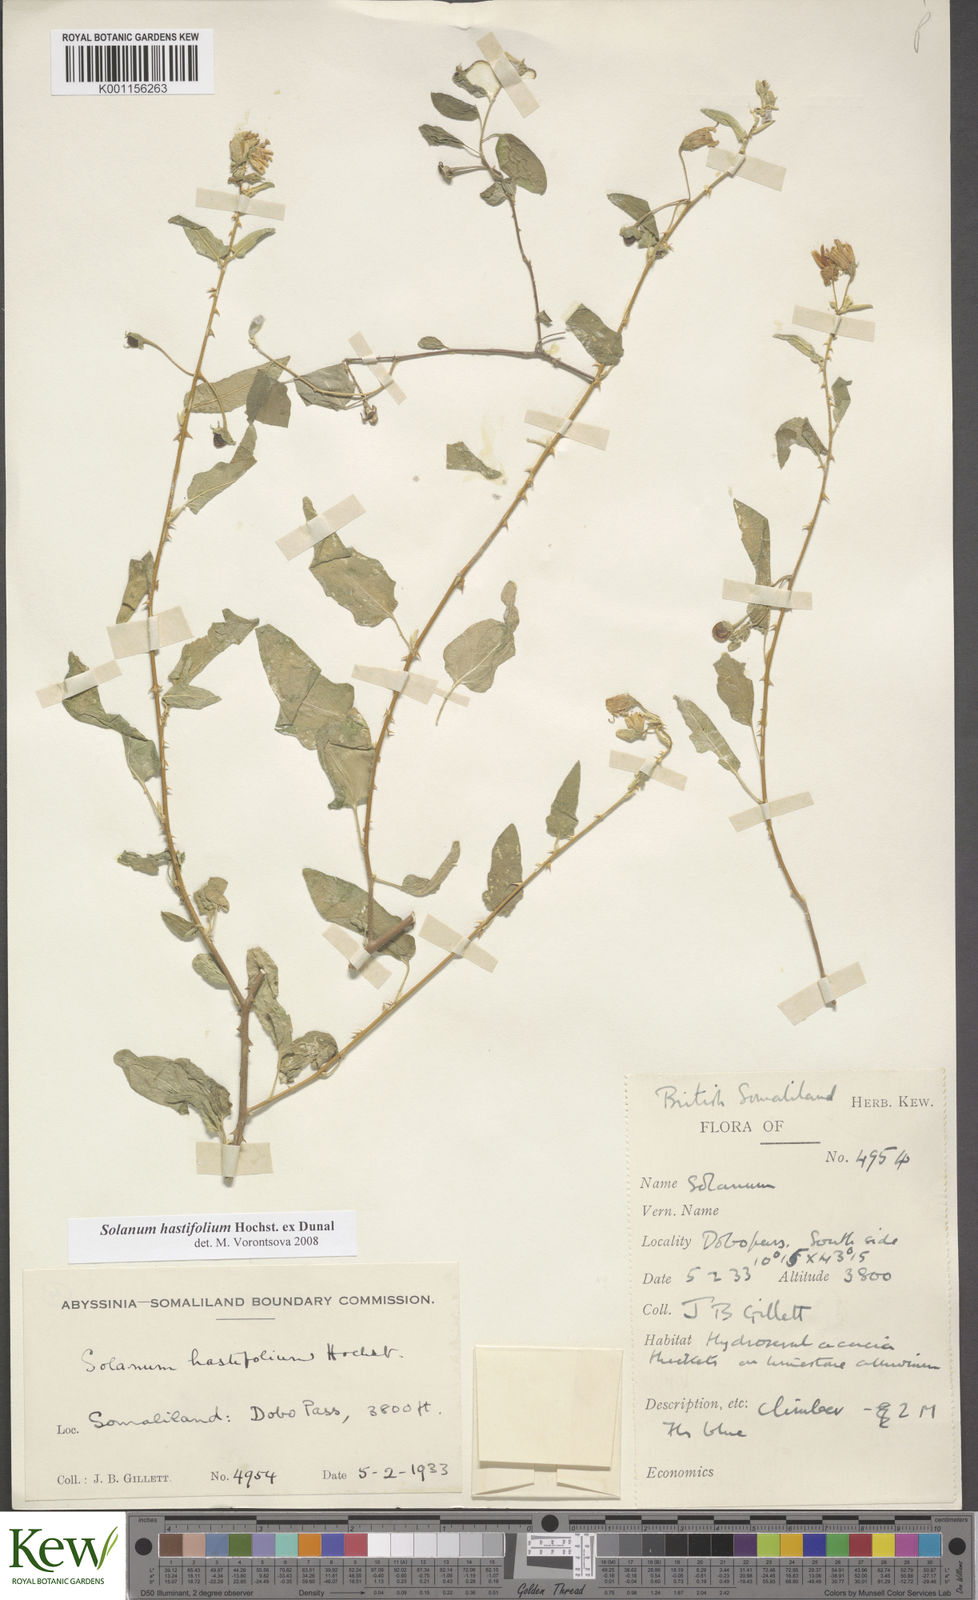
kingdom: Plantae
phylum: Tracheophyta
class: Magnoliopsida
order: Solanales
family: Solanaceae
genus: Solanum
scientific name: Solanum hastifolium
